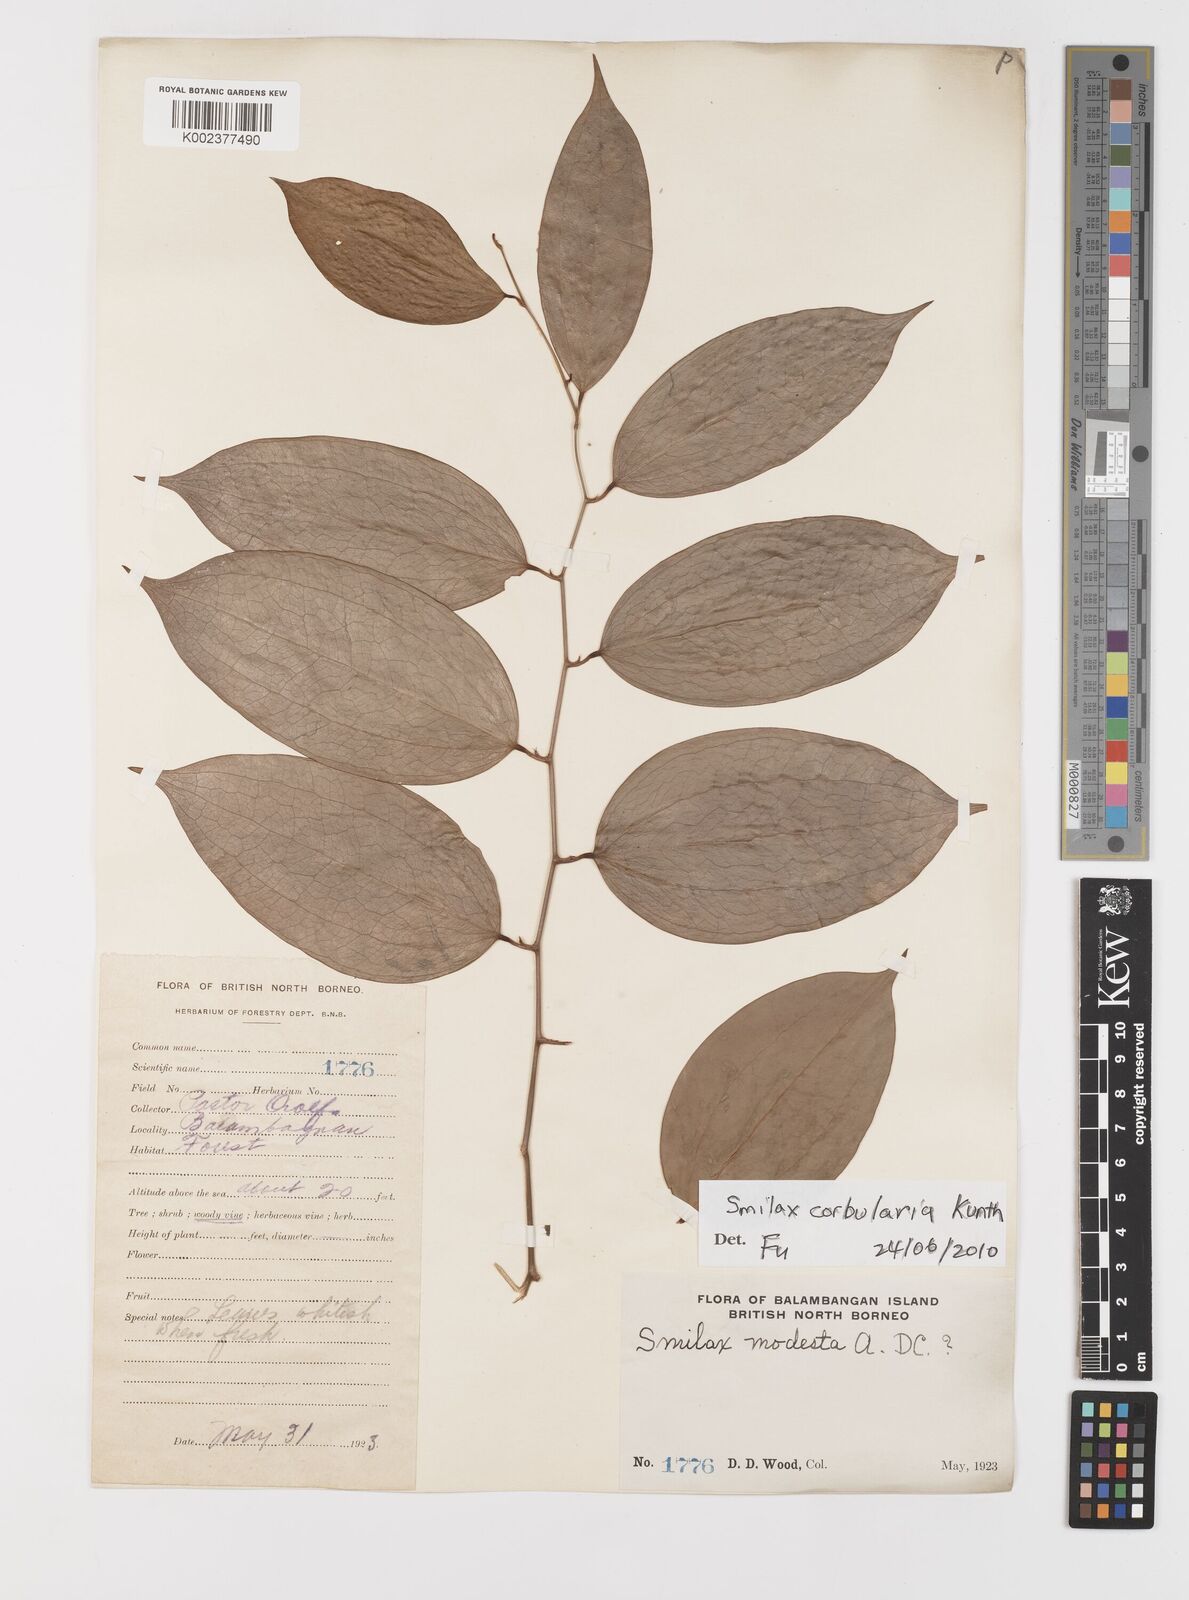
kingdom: Plantae
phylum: Tracheophyta
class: Liliopsida
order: Liliales
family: Smilacaceae
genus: Smilax
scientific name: Smilax corbularia
